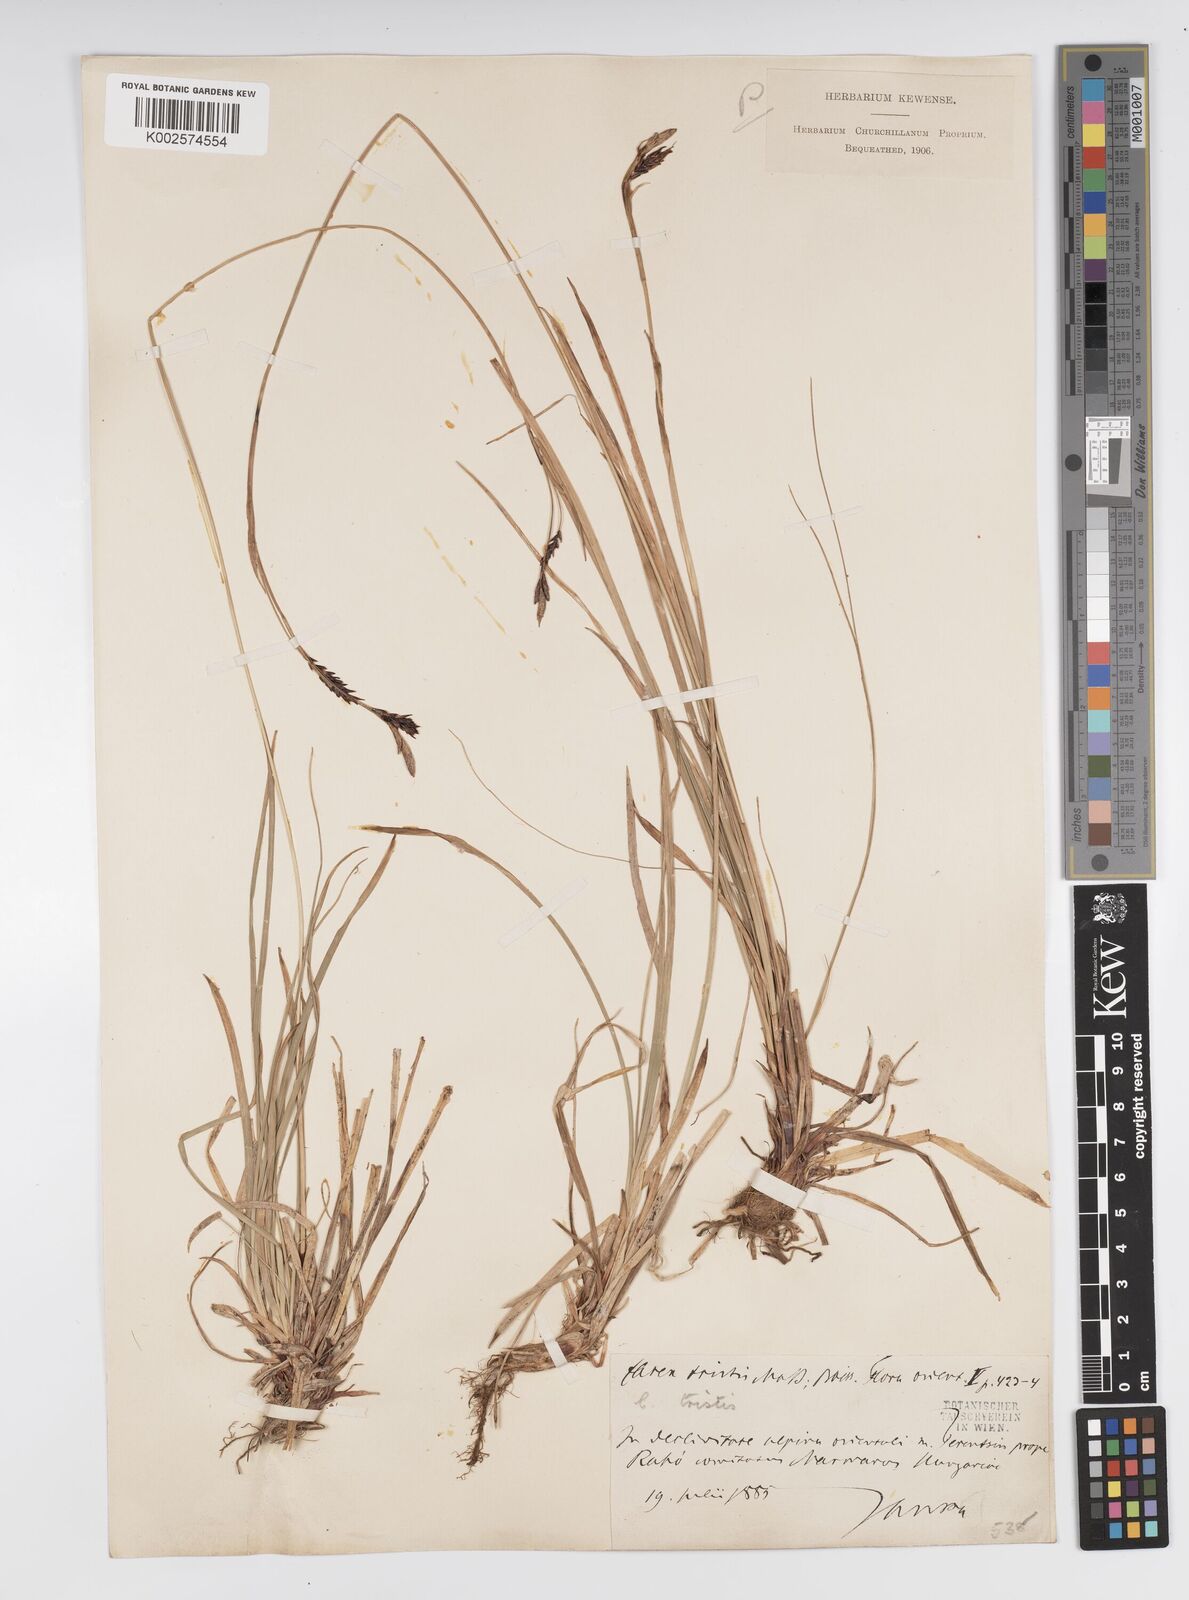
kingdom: Plantae
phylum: Tracheophyta
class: Liliopsida
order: Poales
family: Cyperaceae
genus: Carex
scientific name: Carex sempervirens
